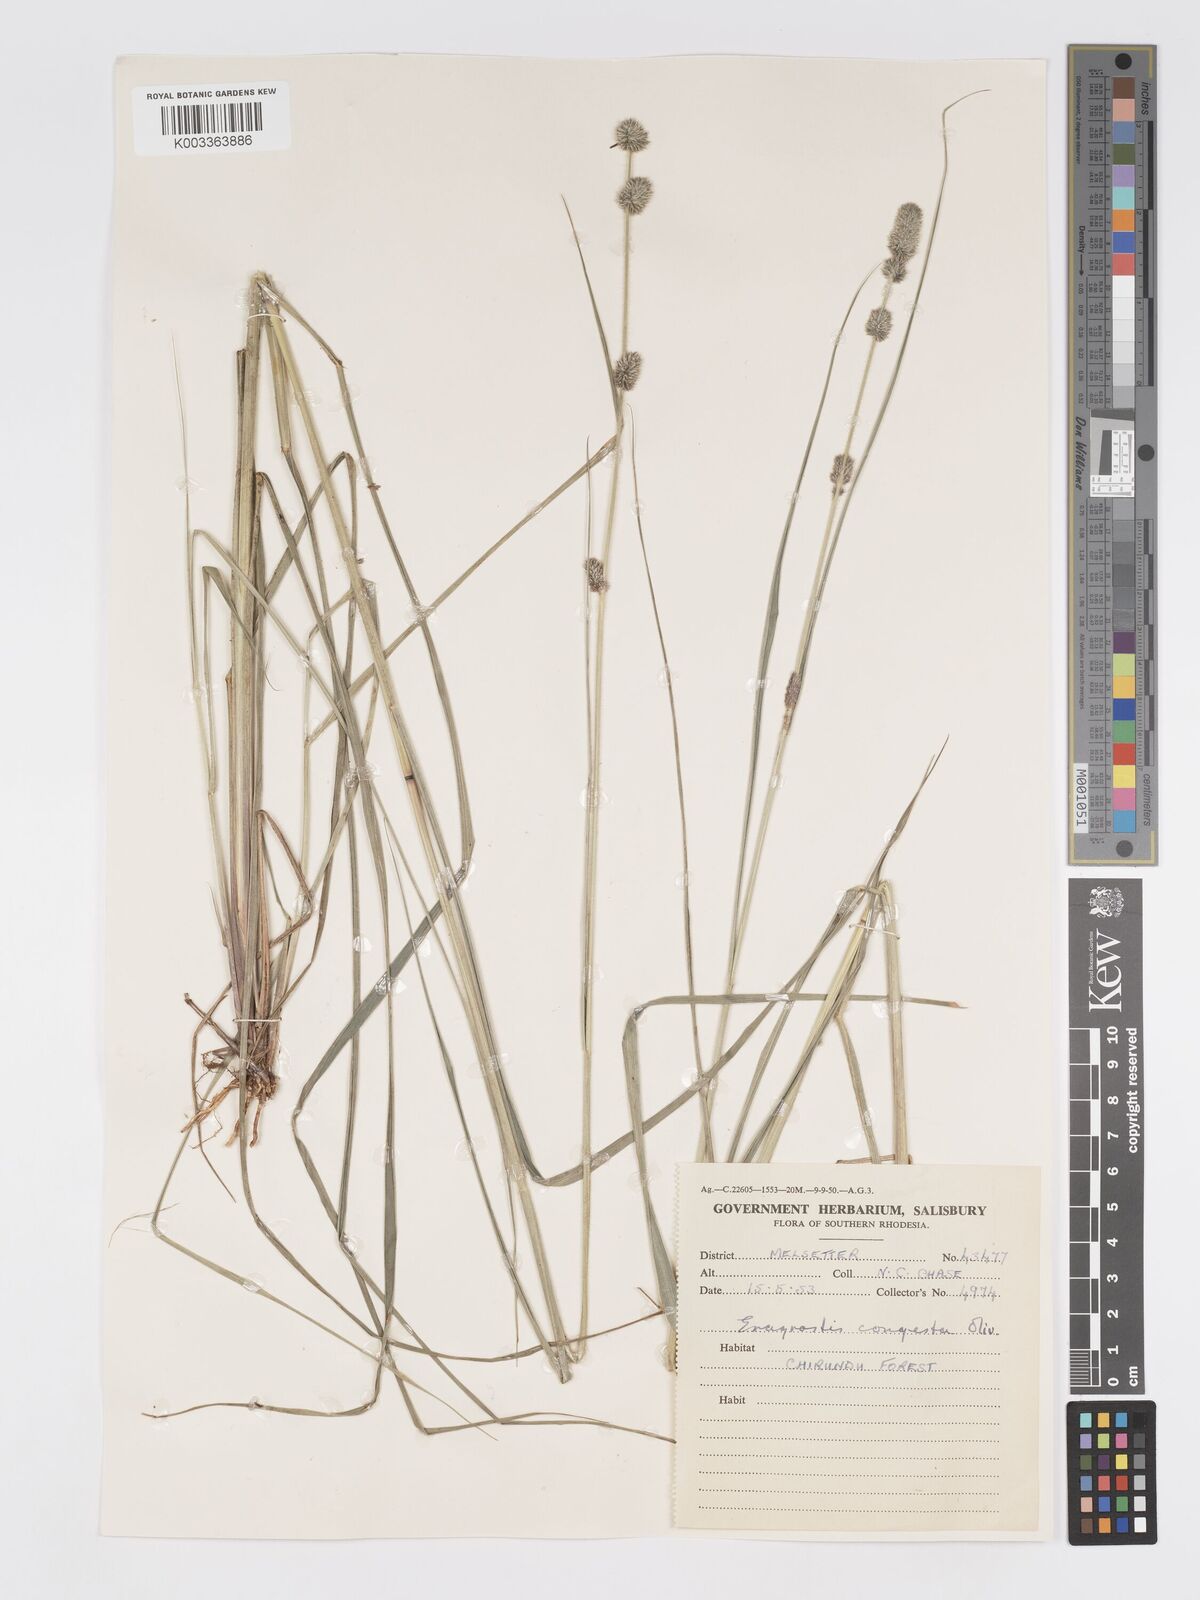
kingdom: Plantae
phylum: Tracheophyta
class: Liliopsida
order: Poales
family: Poaceae
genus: Eragrostis
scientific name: Eragrostis congesta
